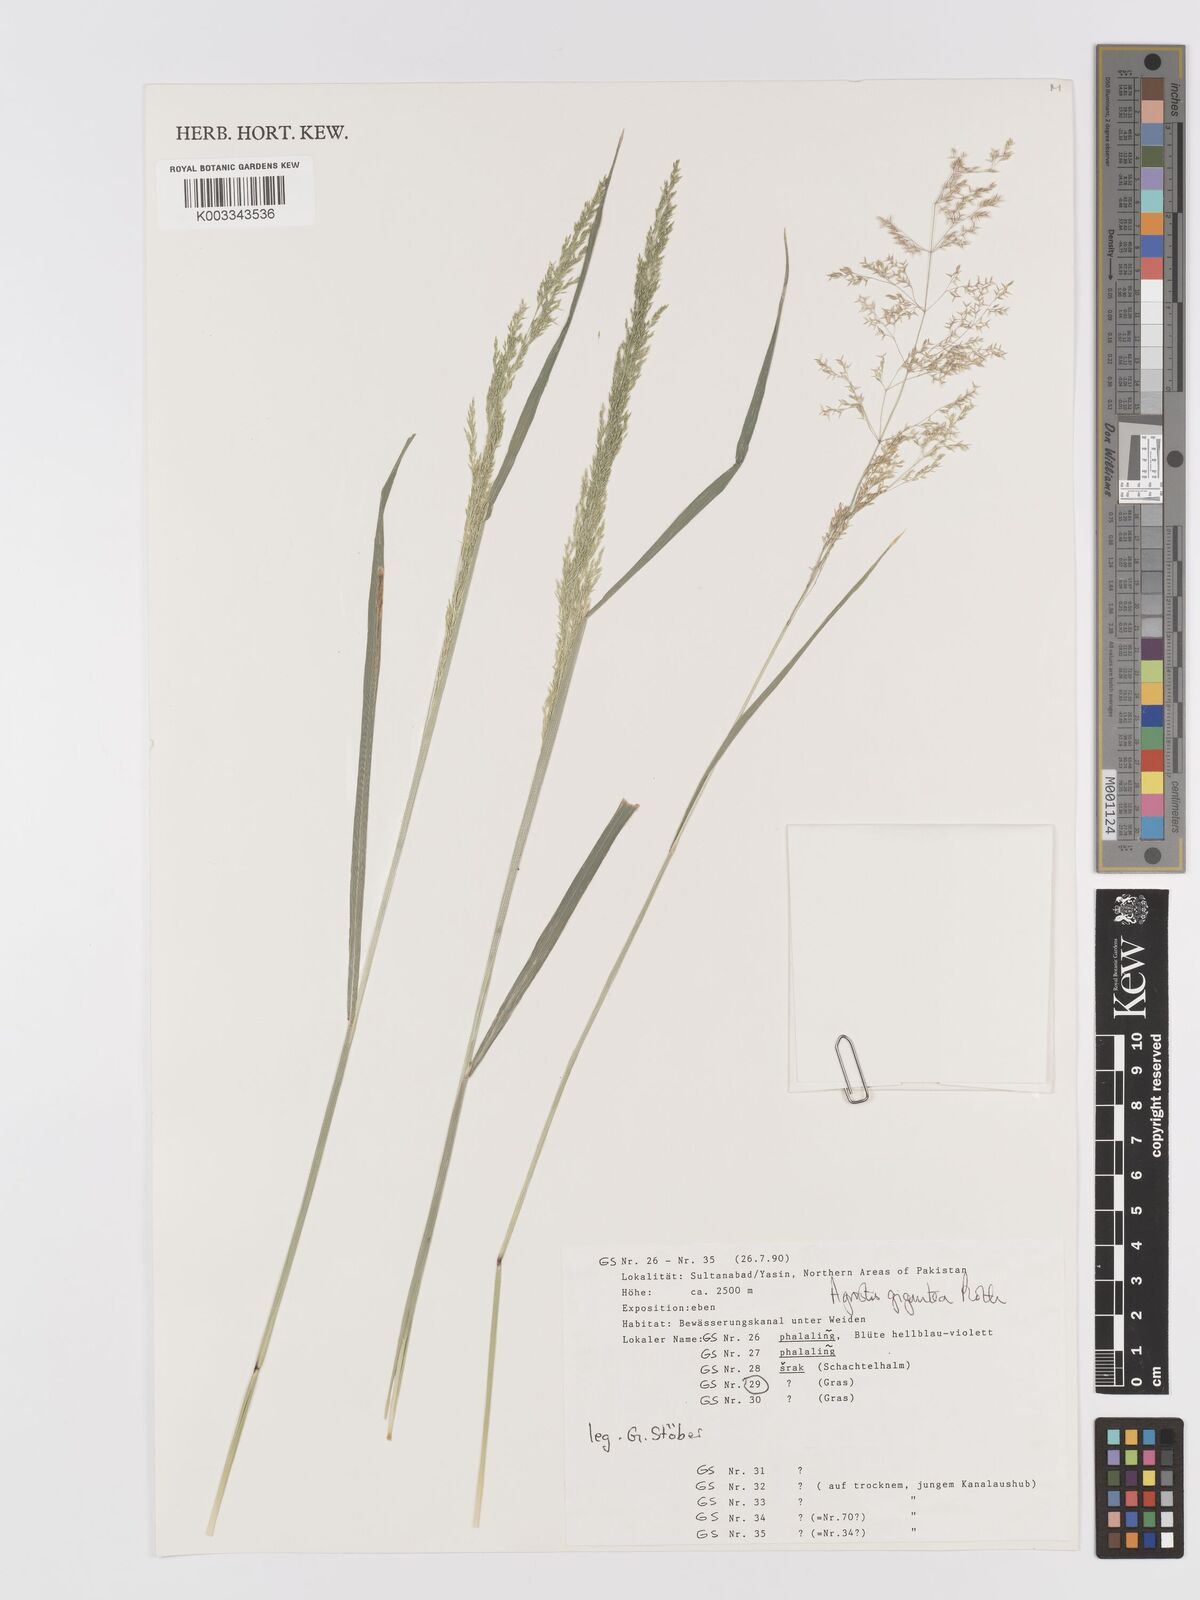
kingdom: Plantae
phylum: Tracheophyta
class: Liliopsida
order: Poales
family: Poaceae
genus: Agrostis
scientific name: Agrostis gigantea
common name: Black bent
